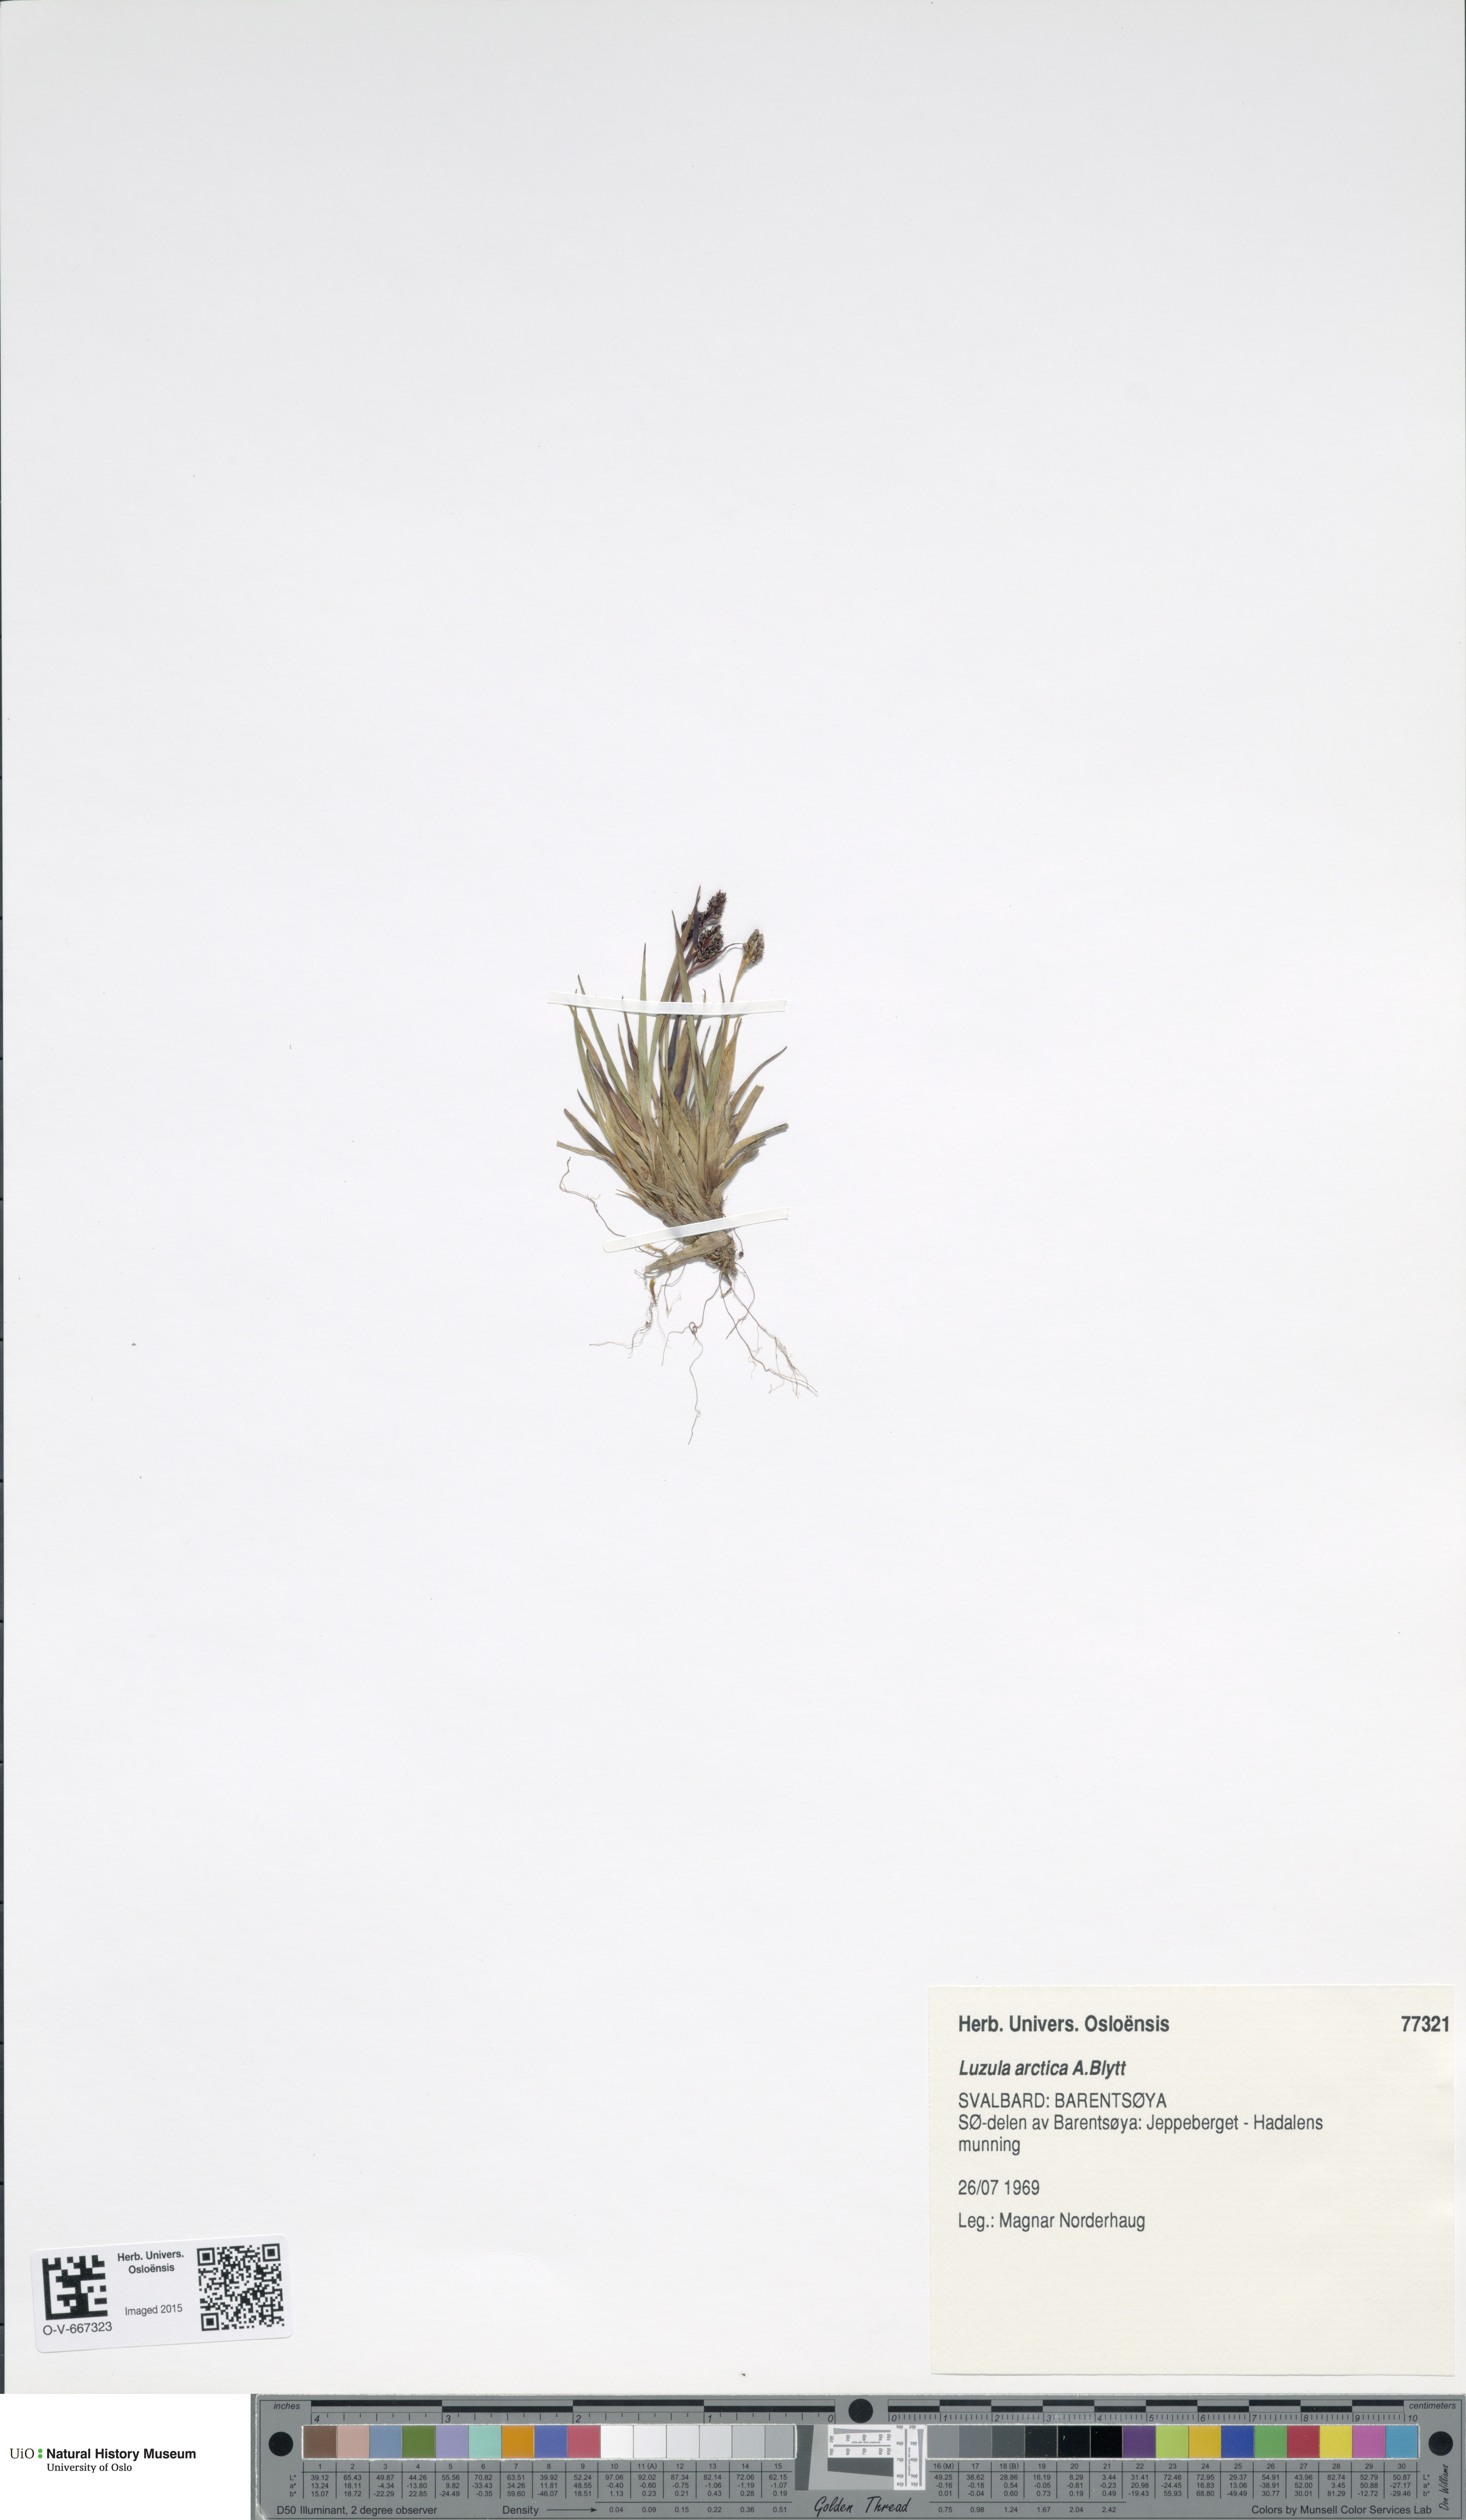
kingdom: Plantae
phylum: Tracheophyta
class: Liliopsida
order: Poales
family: Juncaceae
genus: Luzula
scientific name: Luzula nivalis
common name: Arctic woodrush
